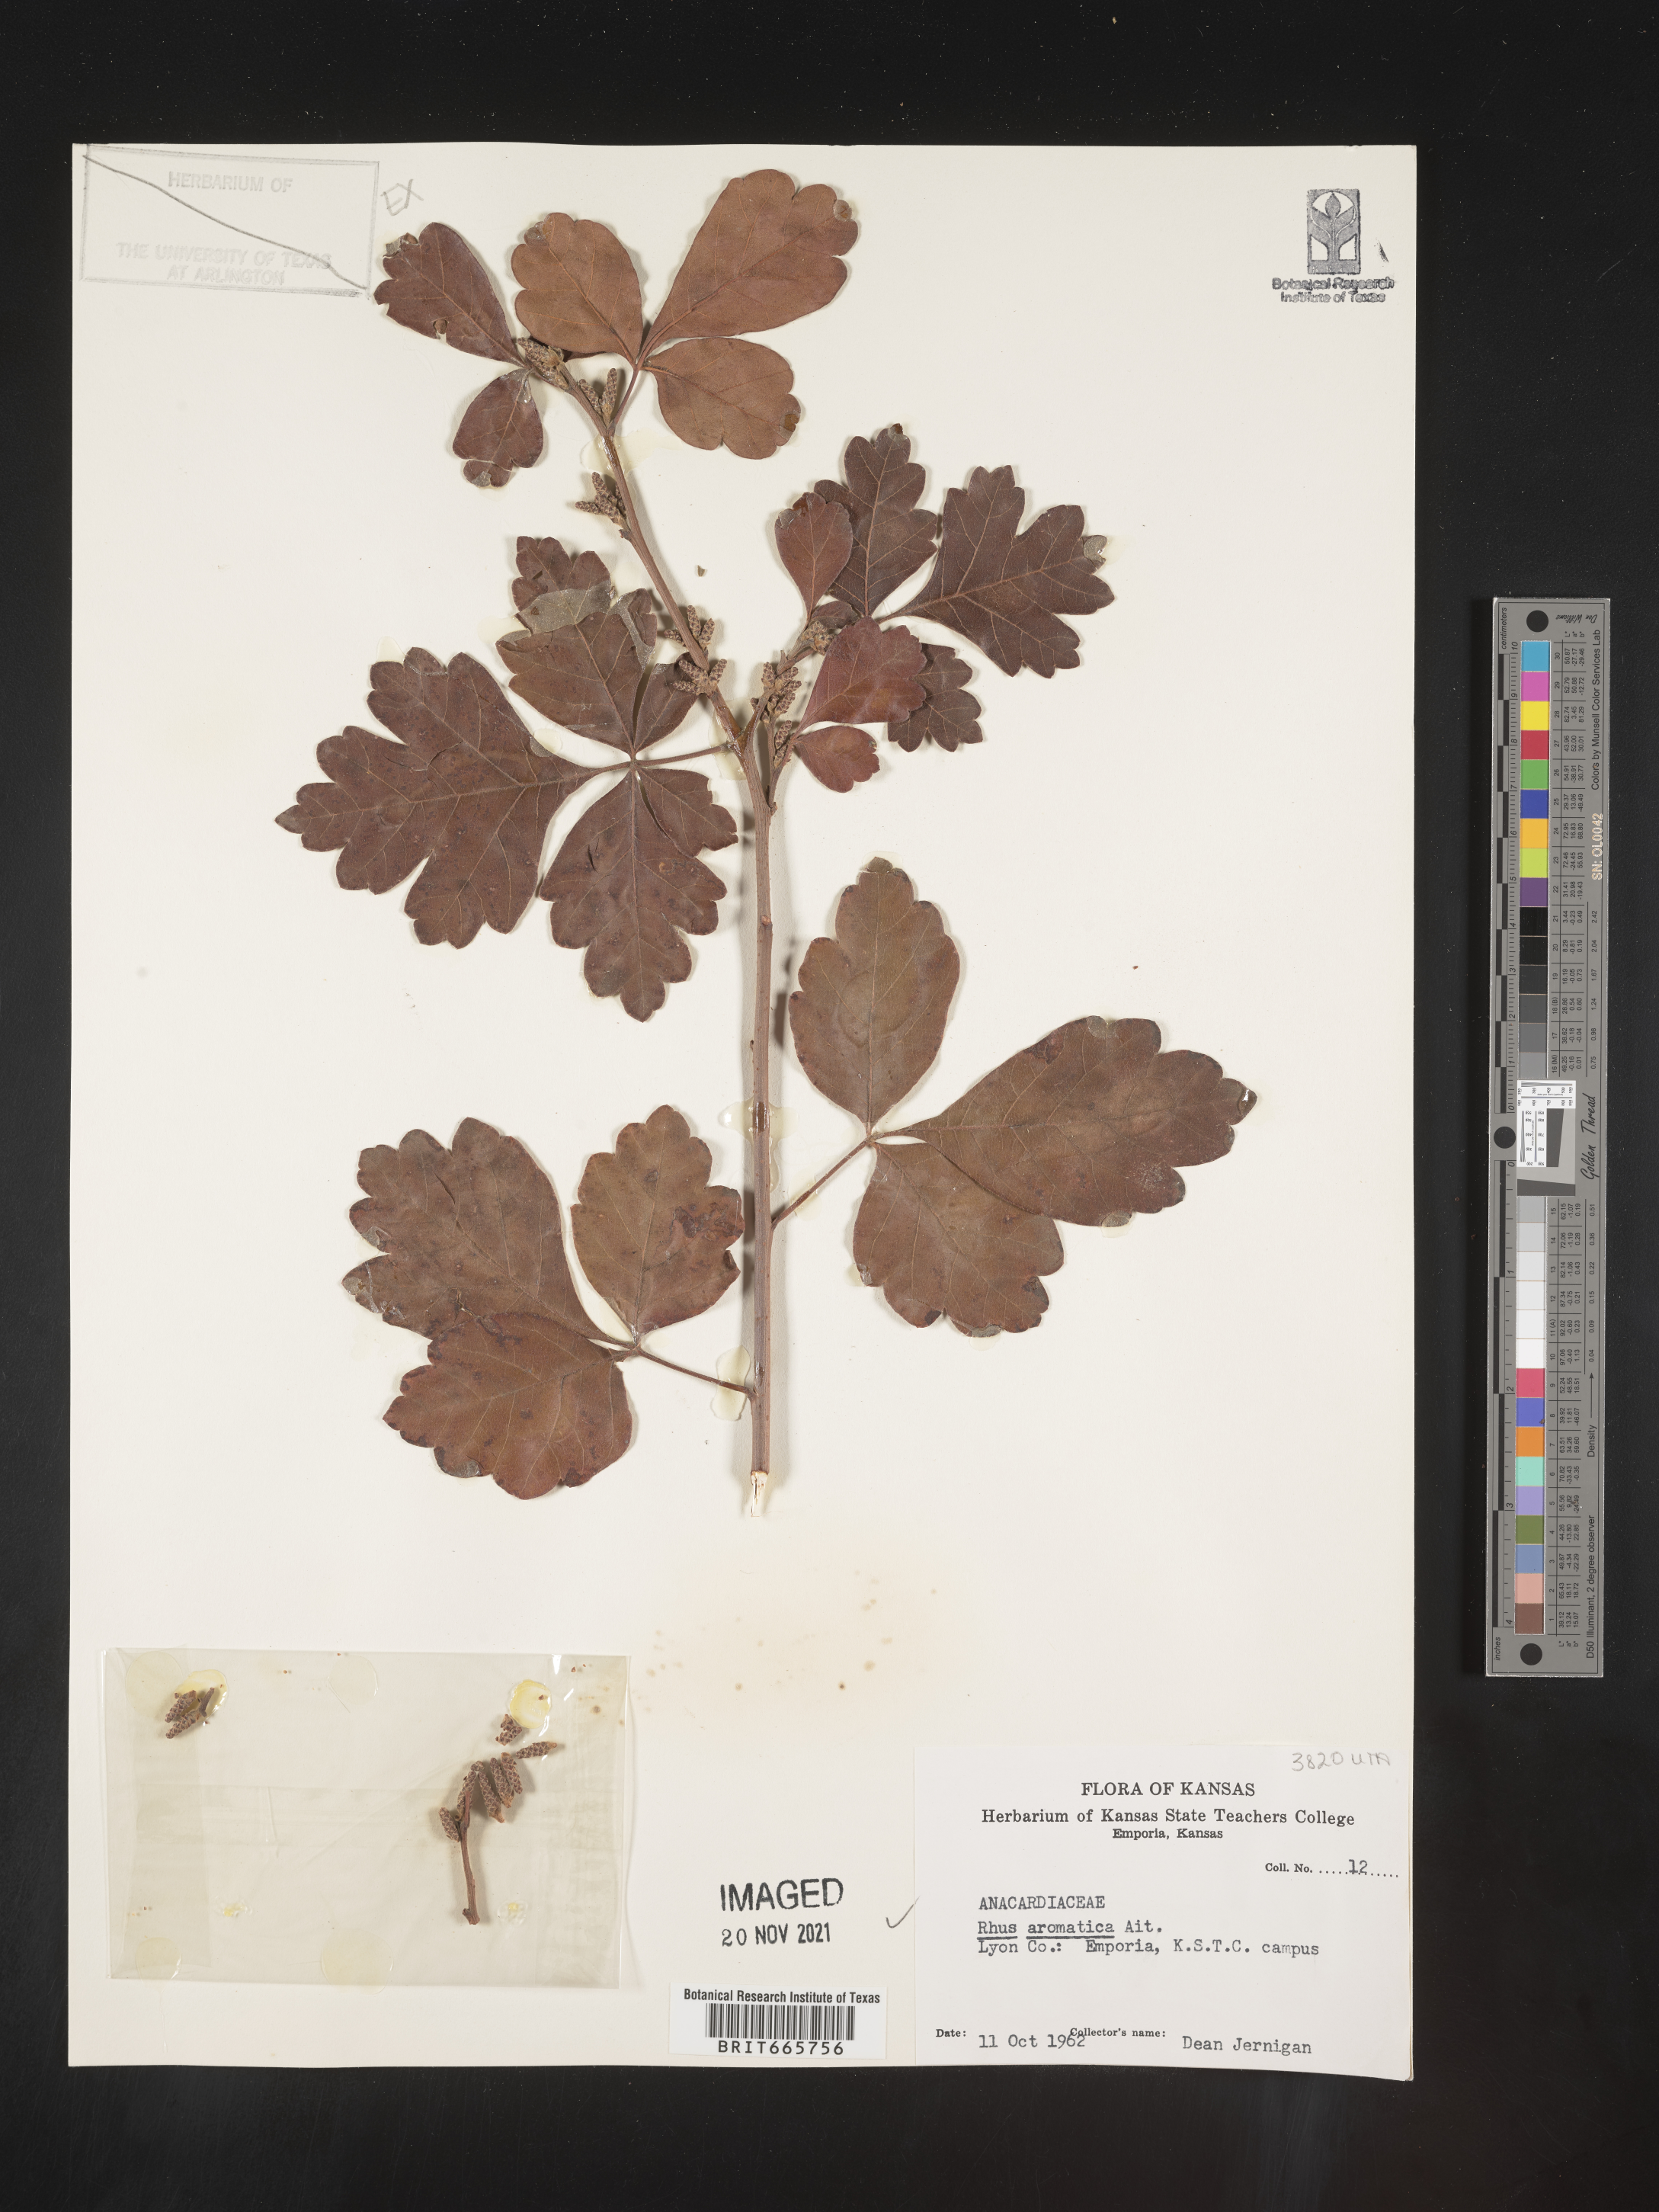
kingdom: Plantae
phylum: Tracheophyta
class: Magnoliopsida
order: Sapindales
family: Anacardiaceae
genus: Rhus
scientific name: Rhus aromatica
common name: Aromatic sumac
